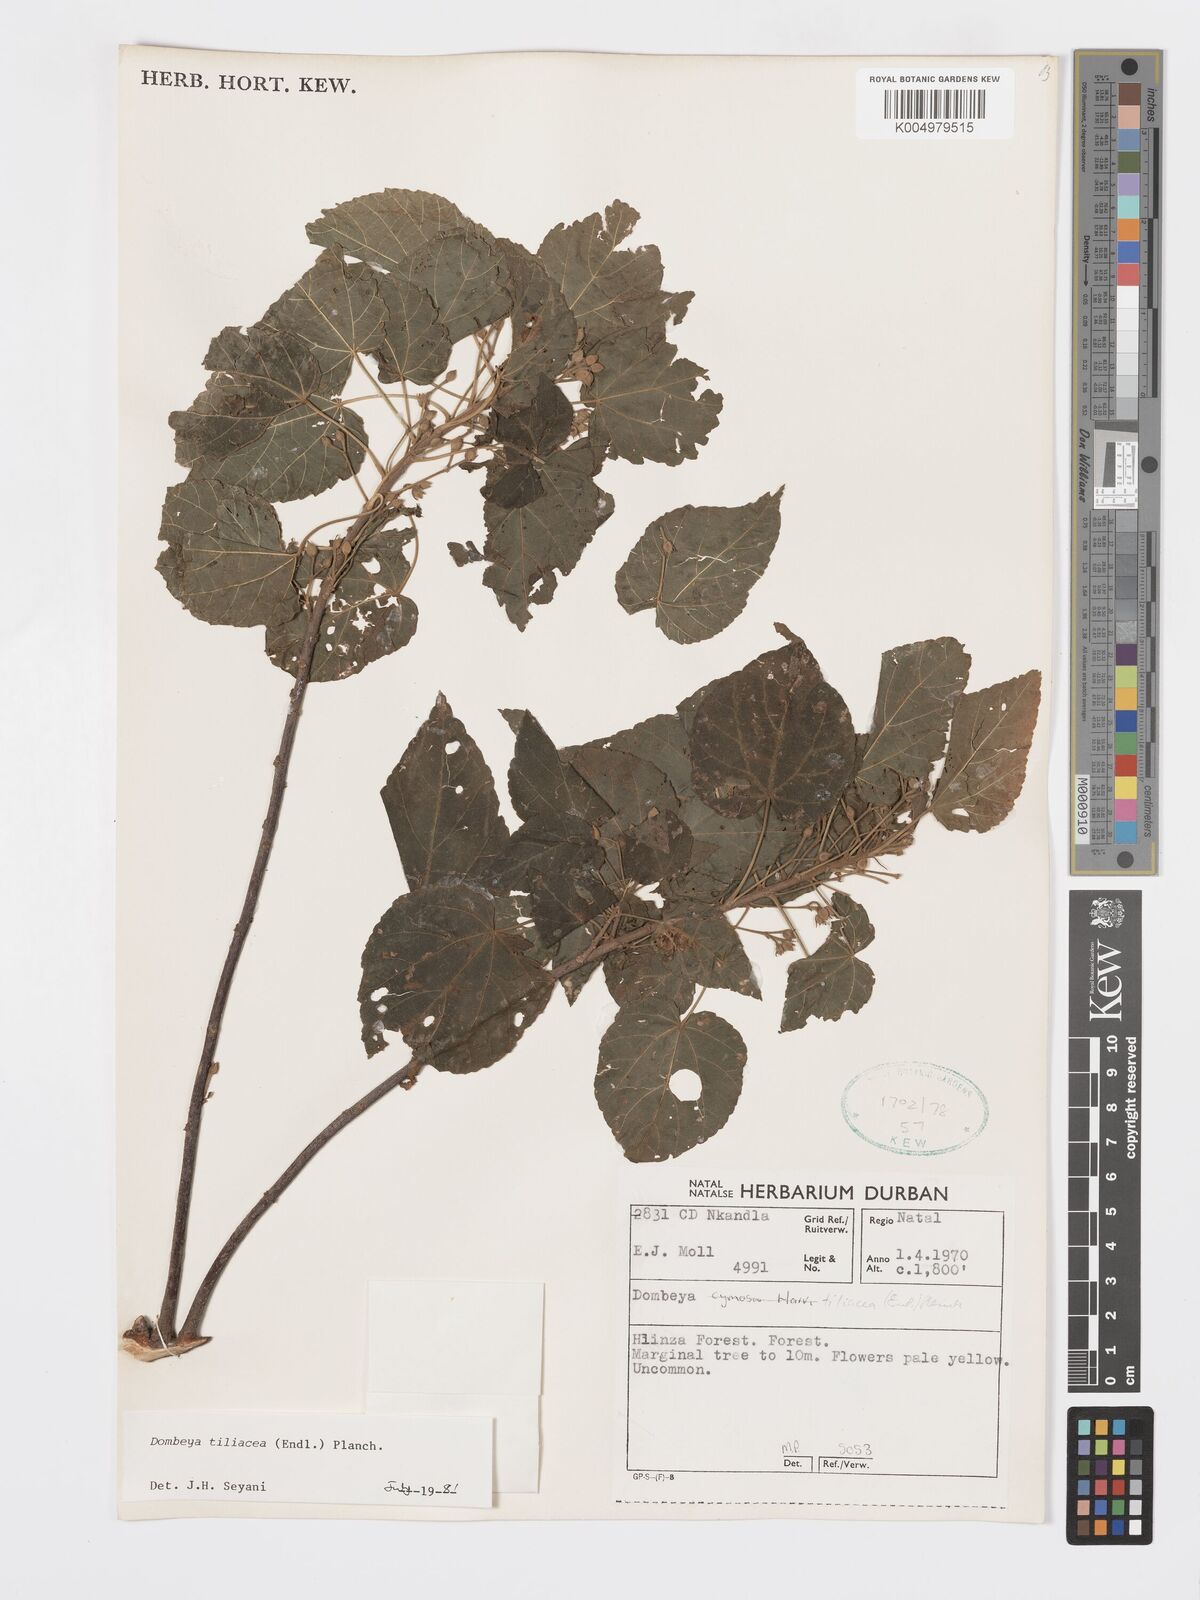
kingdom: Plantae
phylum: Tracheophyta
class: Magnoliopsida
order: Malvales
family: Malvaceae
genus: Dombeya
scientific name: Dombeya tiliacea
